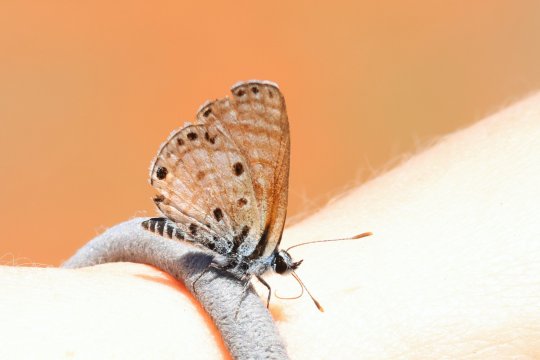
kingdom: Animalia
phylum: Arthropoda
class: Insecta
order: Lepidoptera
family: Lycaenidae
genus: Azanus
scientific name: Azanus jesous
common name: African Babul Blue
